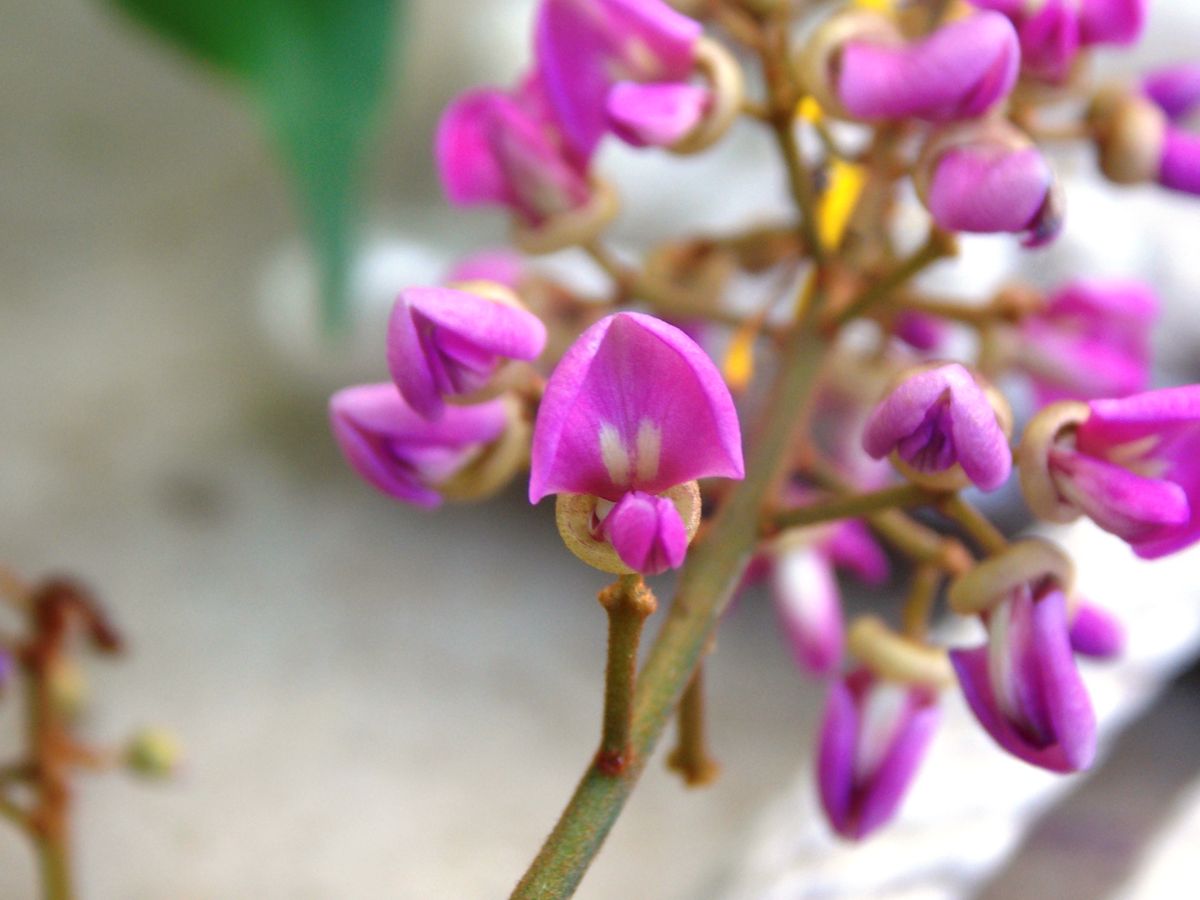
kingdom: Plantae
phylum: Tracheophyta
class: Magnoliopsida
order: Fabales
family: Fabaceae
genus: Lonchocarpus
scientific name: Lonchocarpus santarosanus
